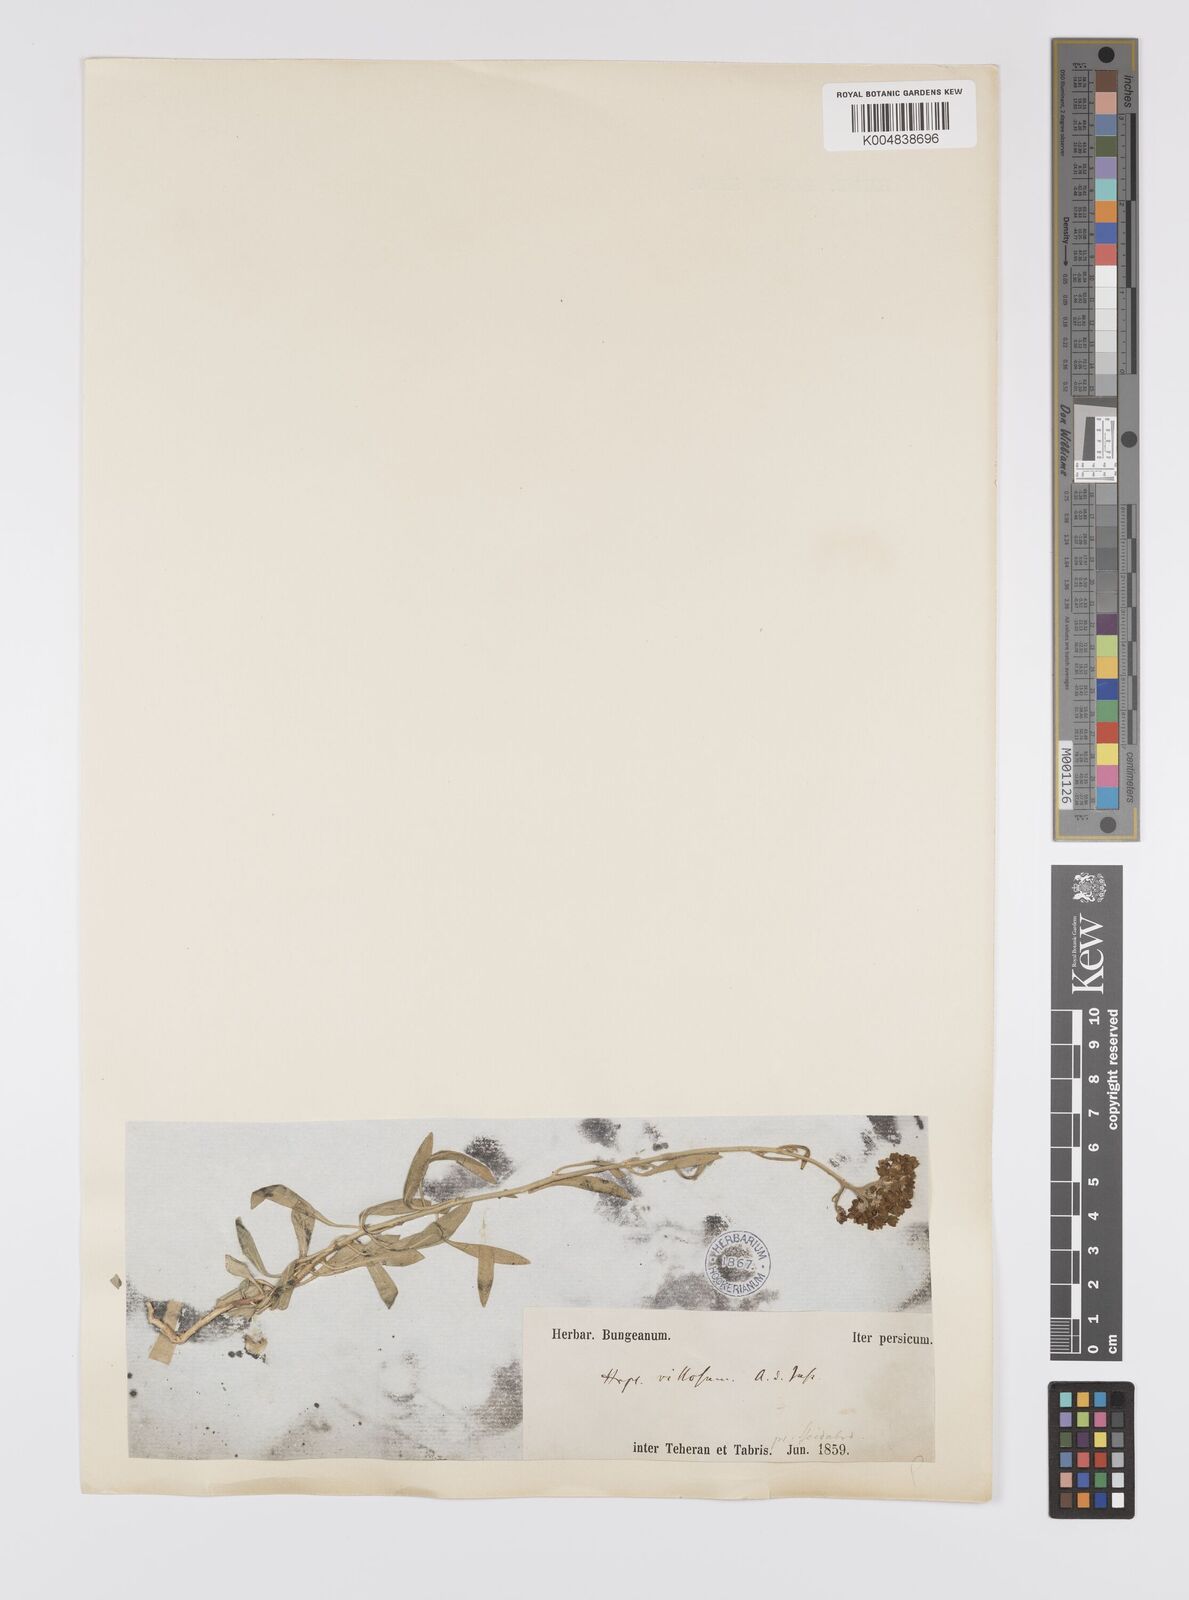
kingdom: Plantae
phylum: Tracheophyta
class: Magnoliopsida
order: Sapindales
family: Rutaceae
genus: Haplophyllum
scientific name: Haplophyllum villosum
